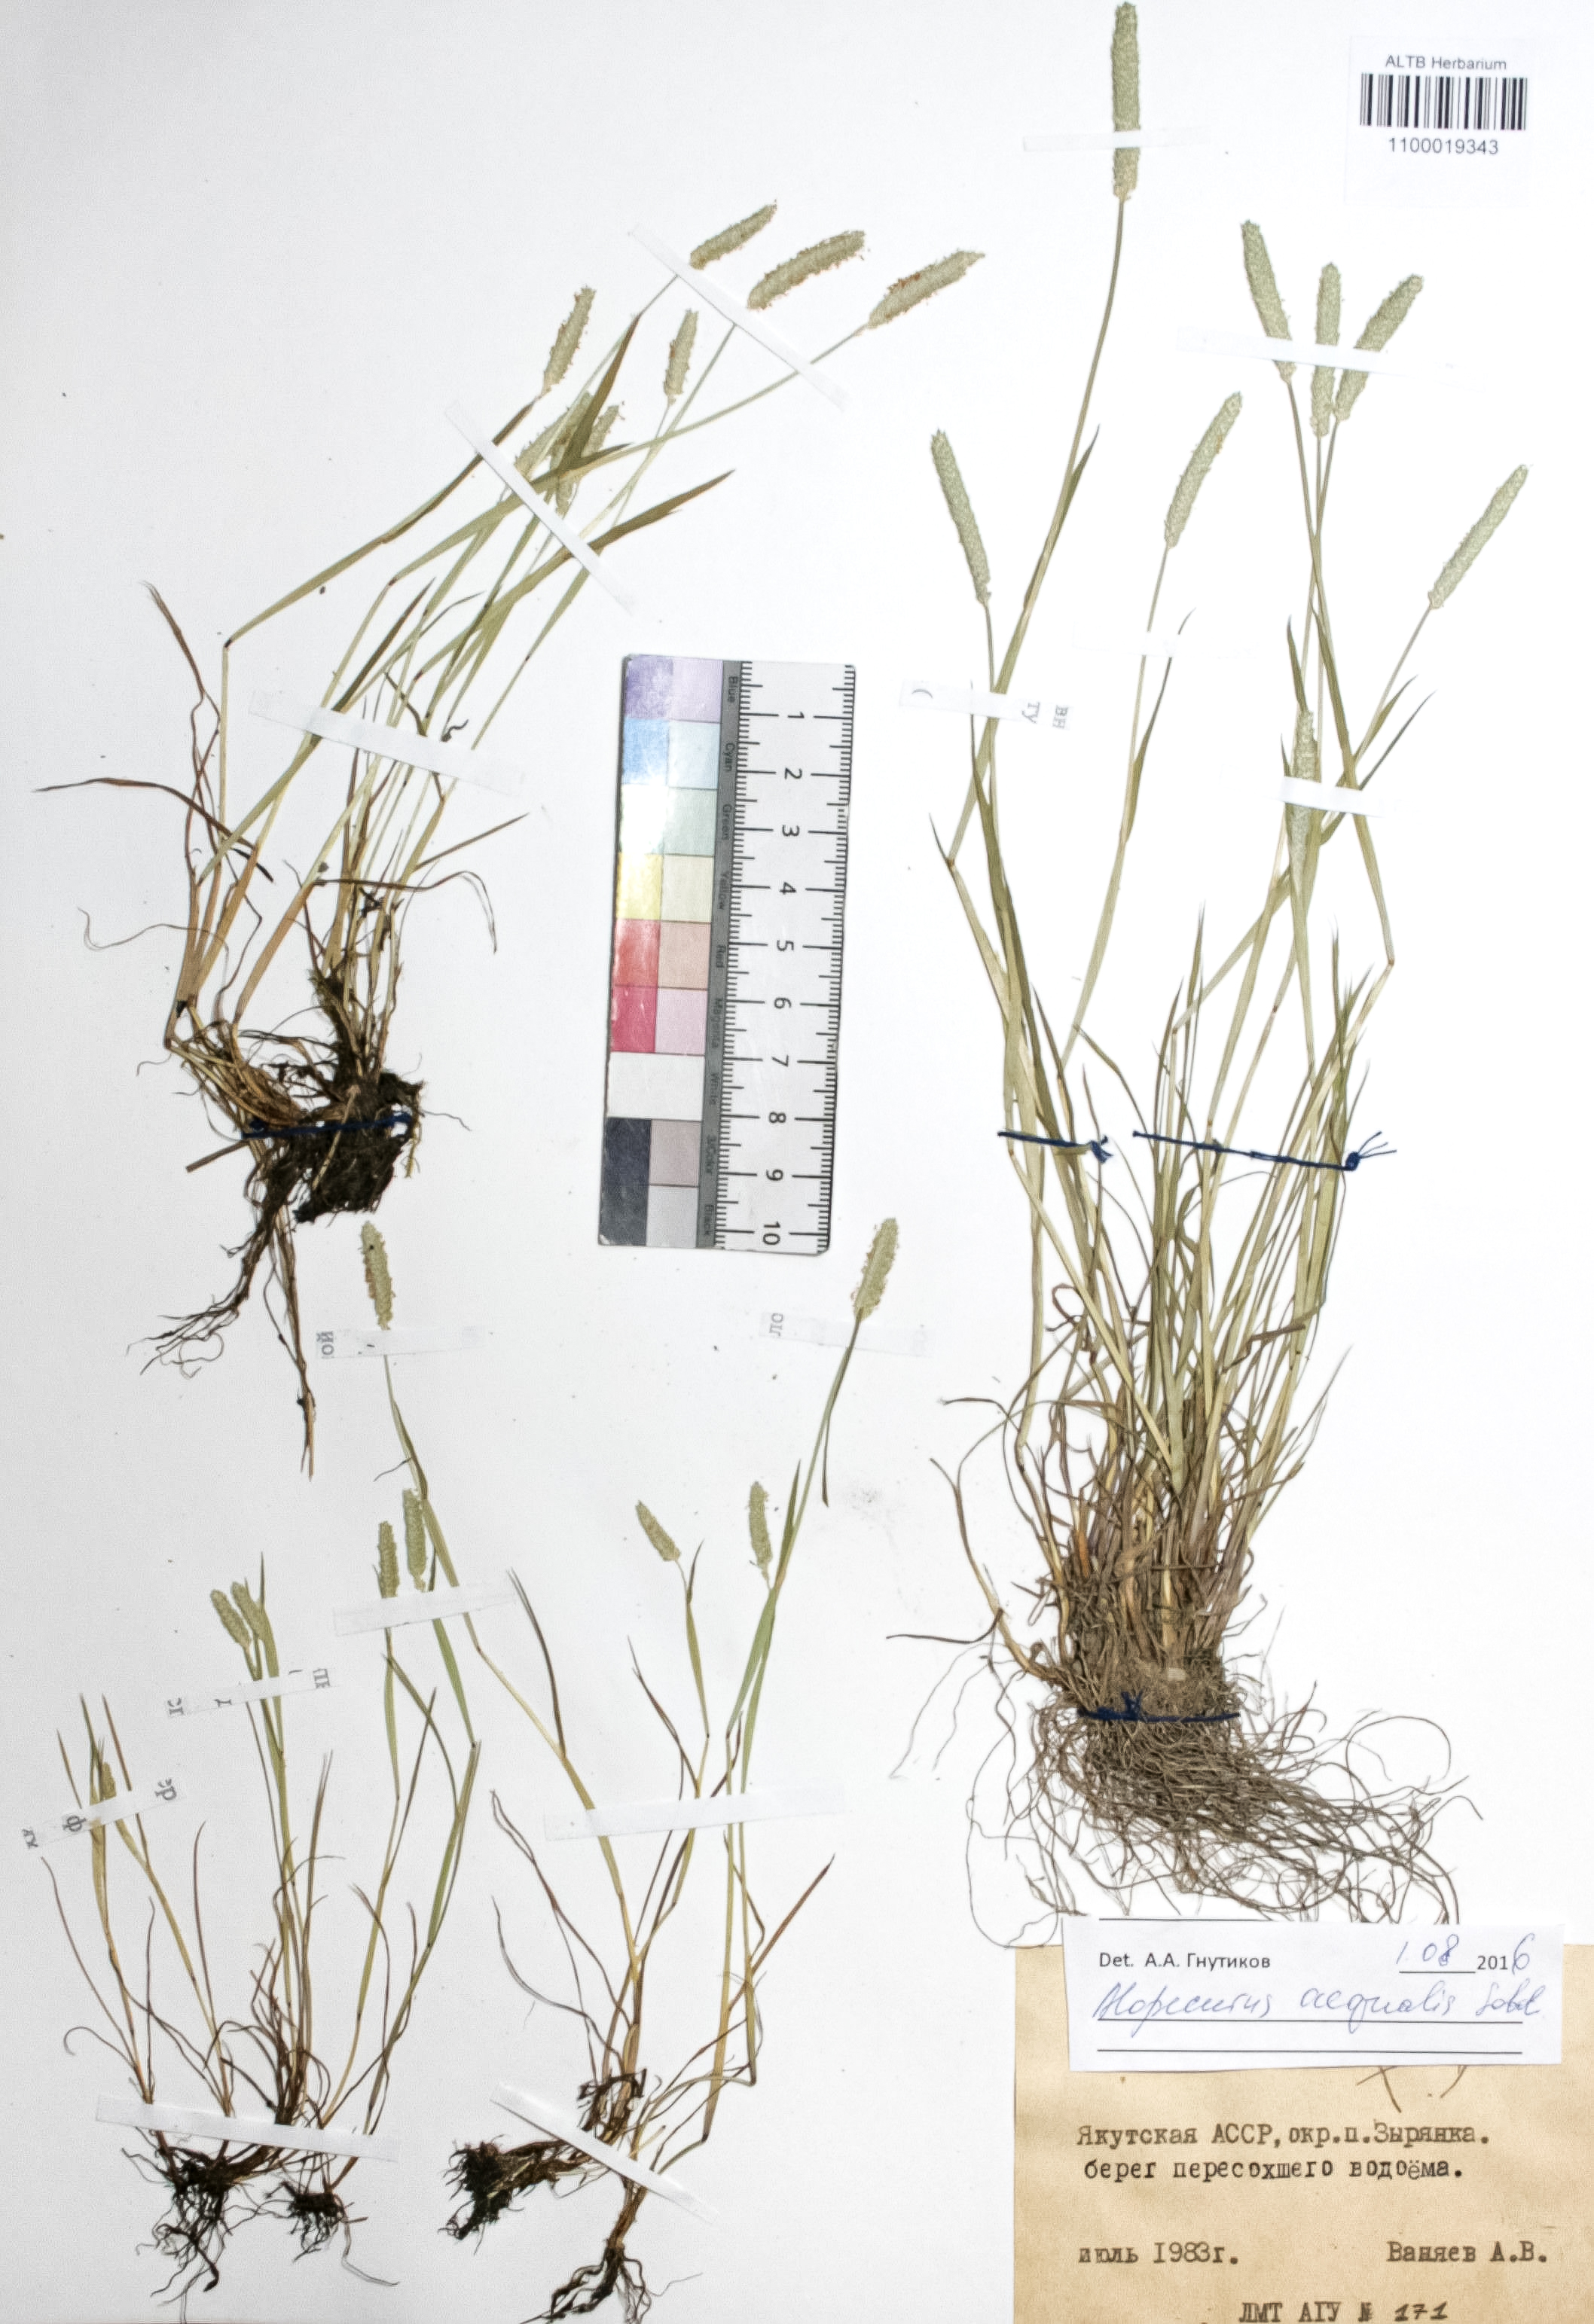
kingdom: Plantae
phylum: Tracheophyta
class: Liliopsida
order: Poales
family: Poaceae
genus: Alopecurus
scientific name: Alopecurus aequalis
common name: Orange foxtail
